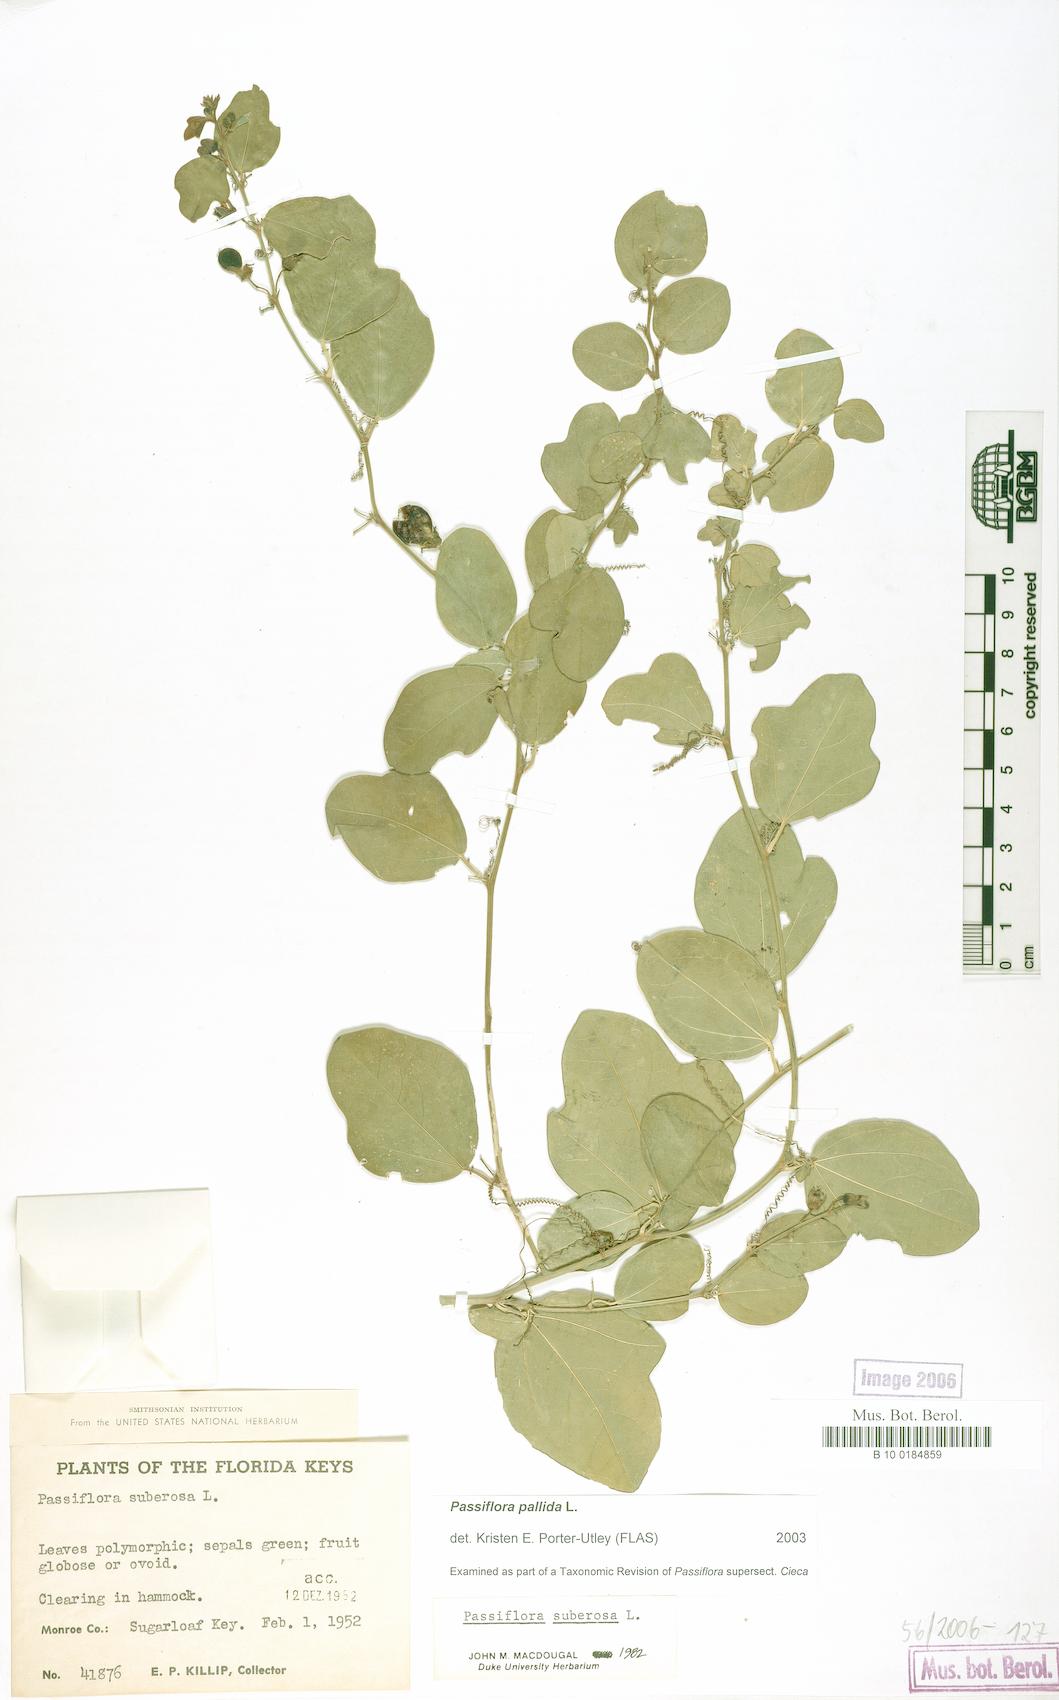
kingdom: Plantae
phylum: Tracheophyta
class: Magnoliopsida
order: Malpighiales
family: Passifloraceae
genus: Passiflora
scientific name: Passiflora pallida
